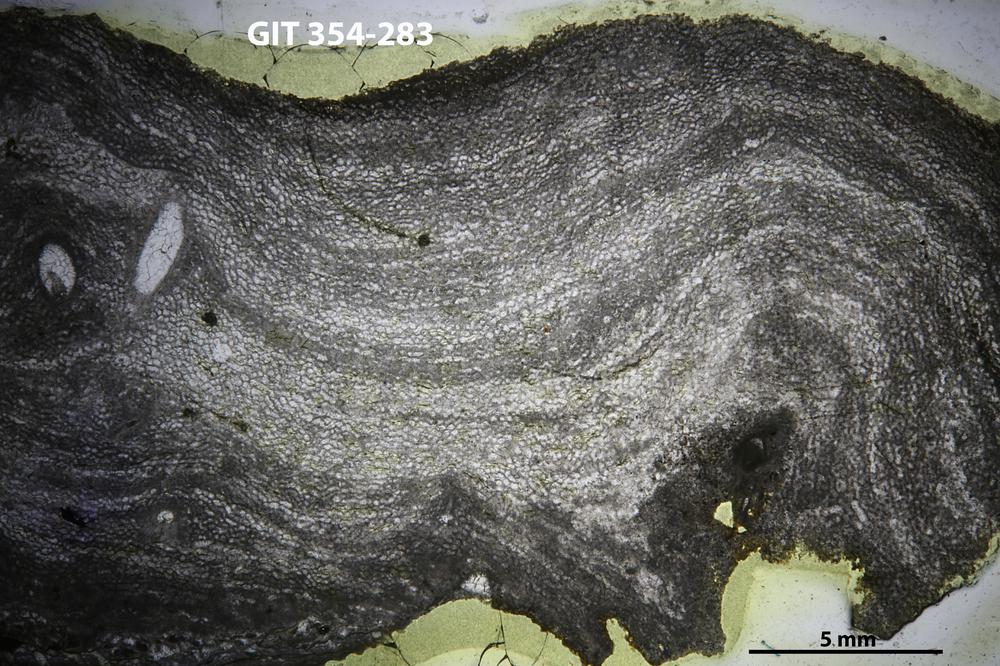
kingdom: Animalia
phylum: Porifera
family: Clathrodictyidae
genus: Clathrodictyon
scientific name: Clathrodictyon boreale
